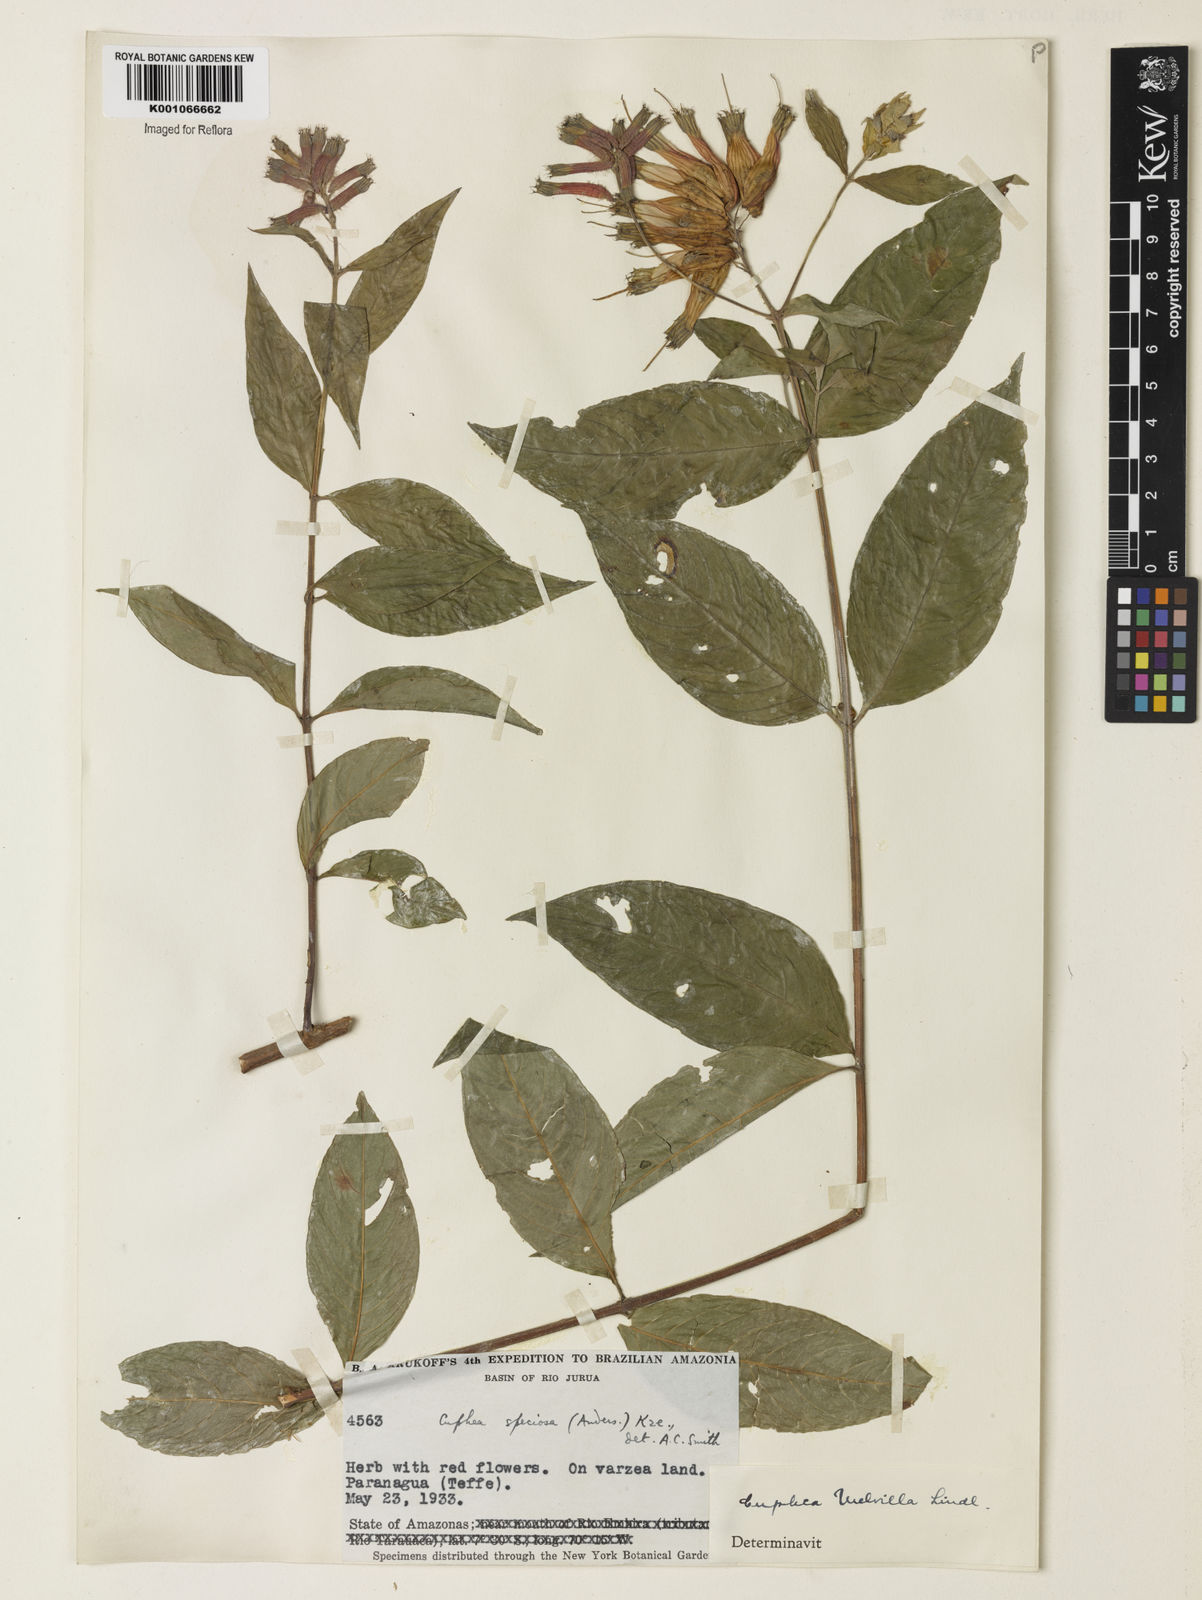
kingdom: Plantae
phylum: Tracheophyta
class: Magnoliopsida
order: Myrtales
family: Lythraceae
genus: Cuphea
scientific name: Cuphea melvilla
